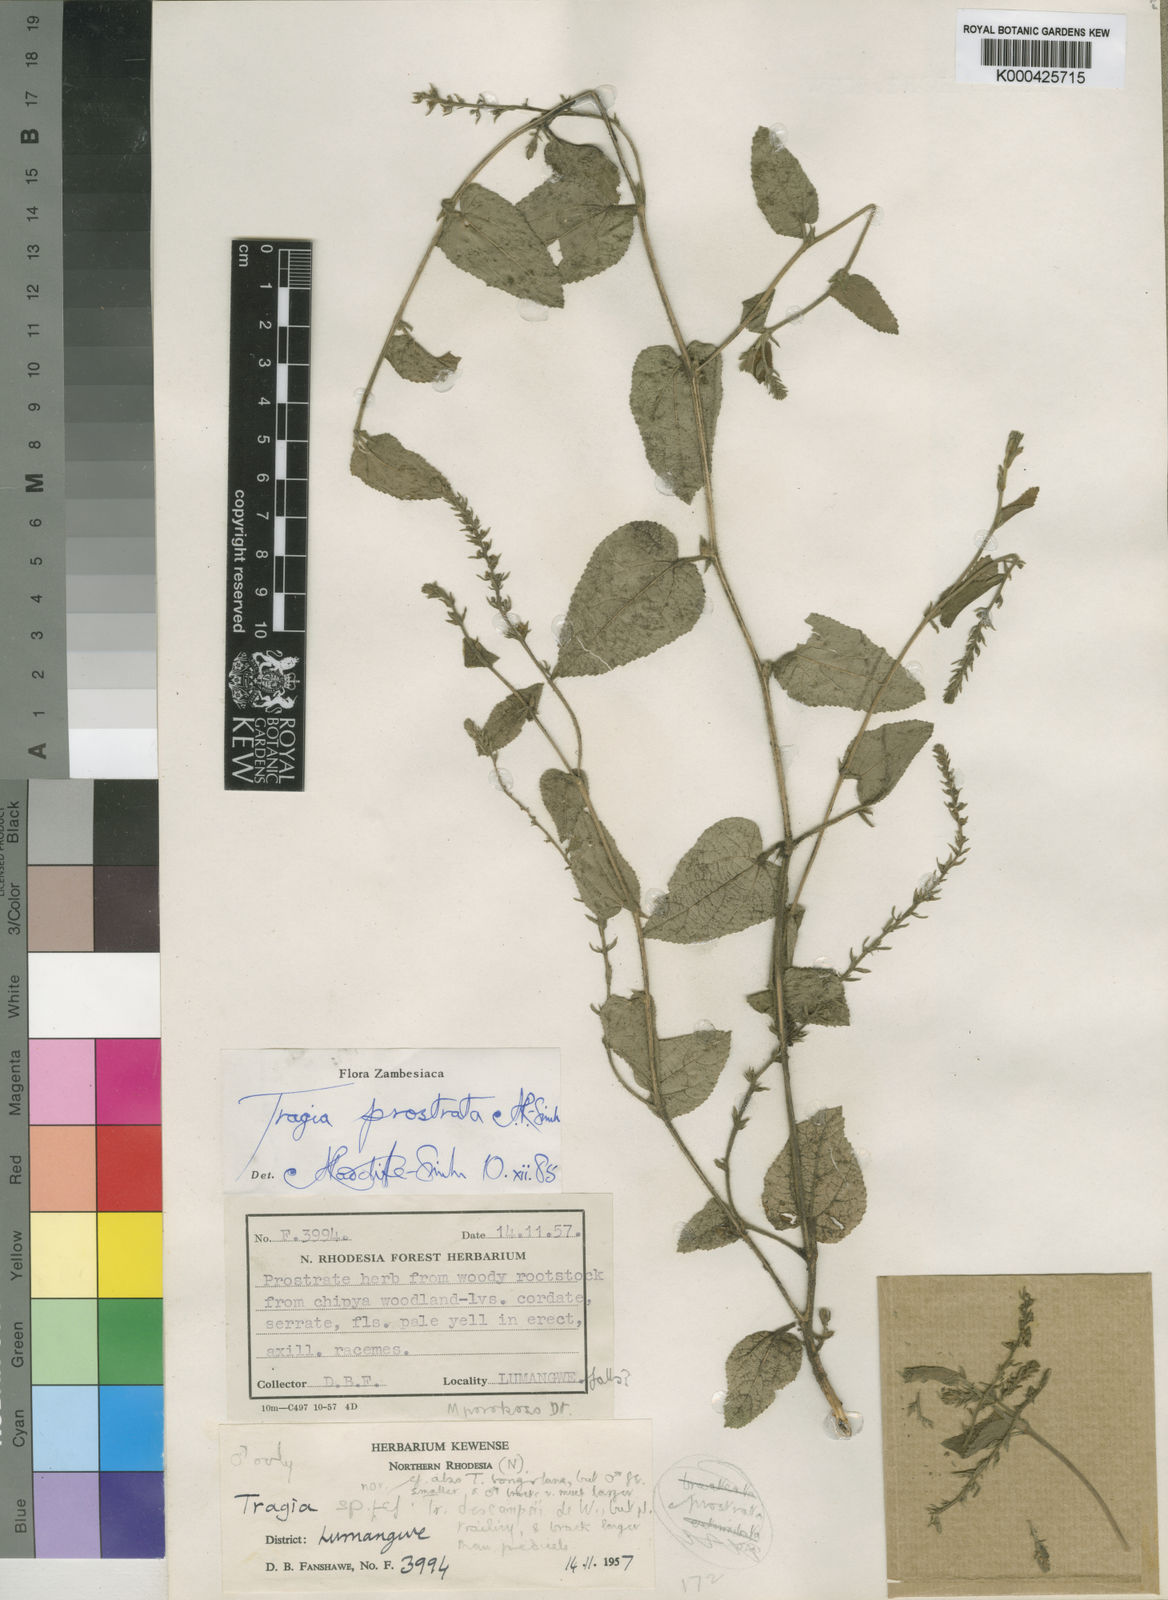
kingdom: Plantae
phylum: Tracheophyta
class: Magnoliopsida
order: Malpighiales
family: Euphorbiaceae
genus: Tragia
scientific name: Tragia prostrata
